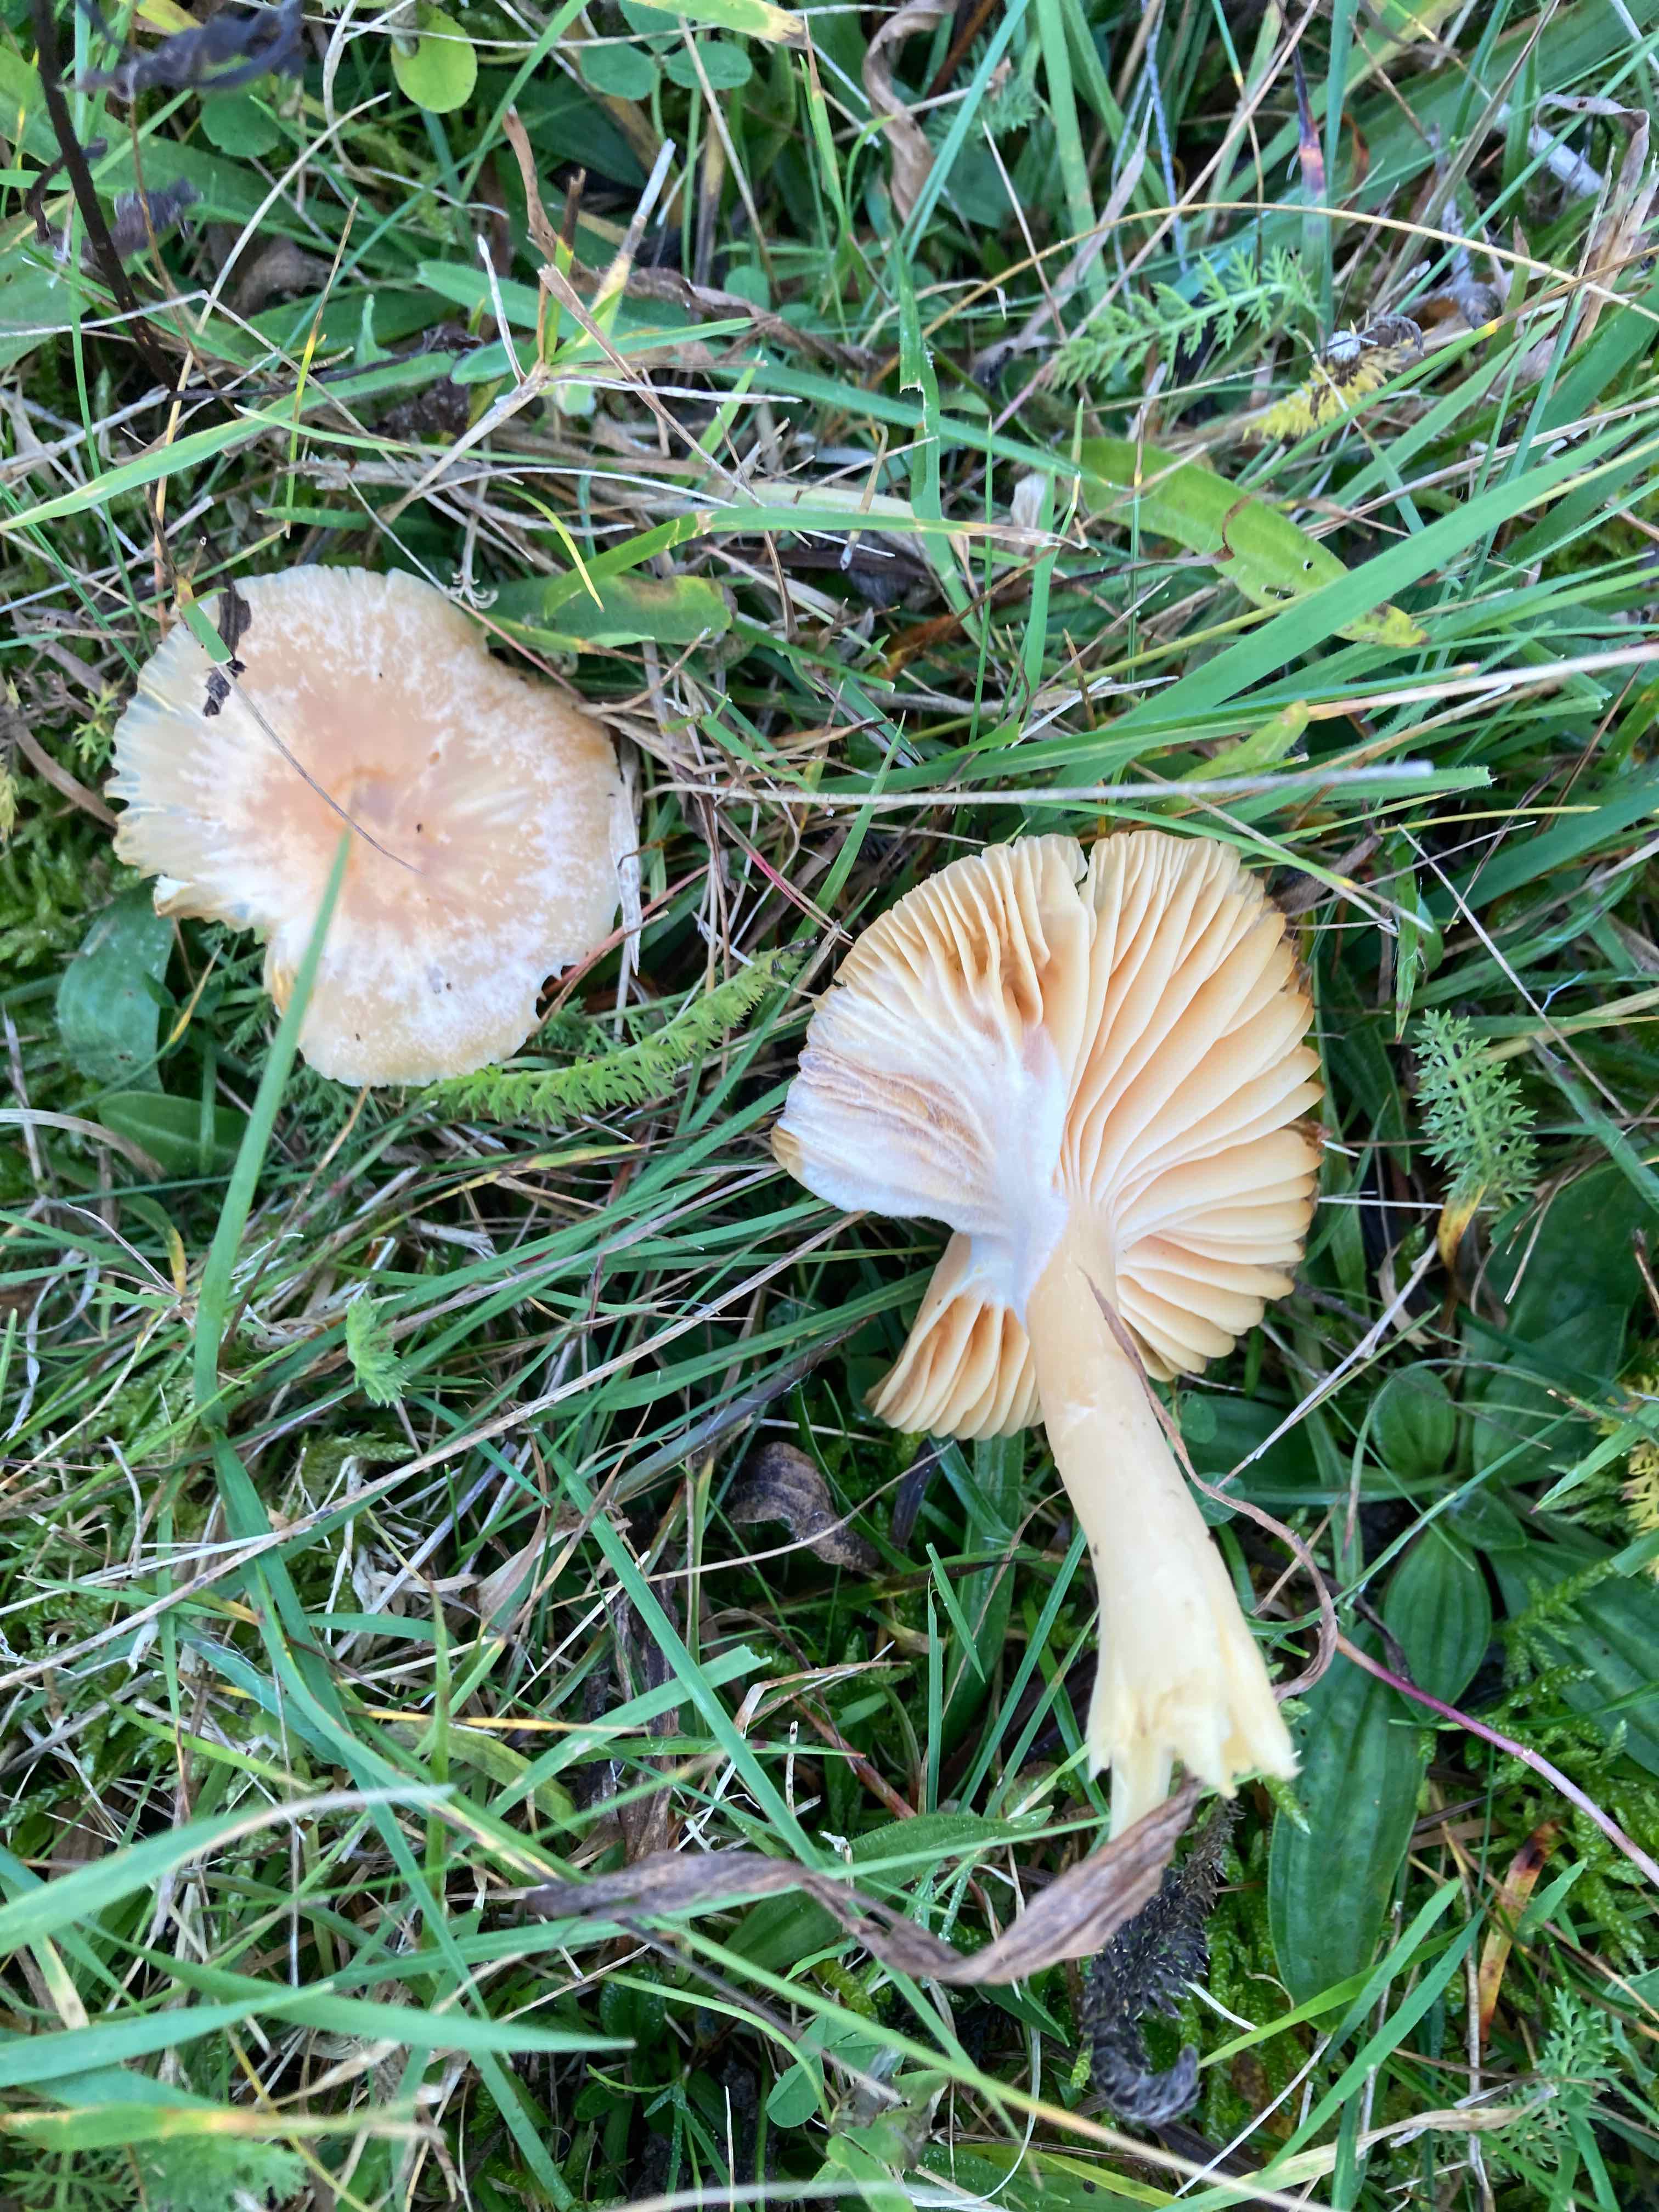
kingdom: Fungi
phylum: Basidiomycota
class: Agaricomycetes
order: Agaricales
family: Hygrophoraceae
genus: Cuphophyllus
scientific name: Cuphophyllus pratensis
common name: eng-vokshat
